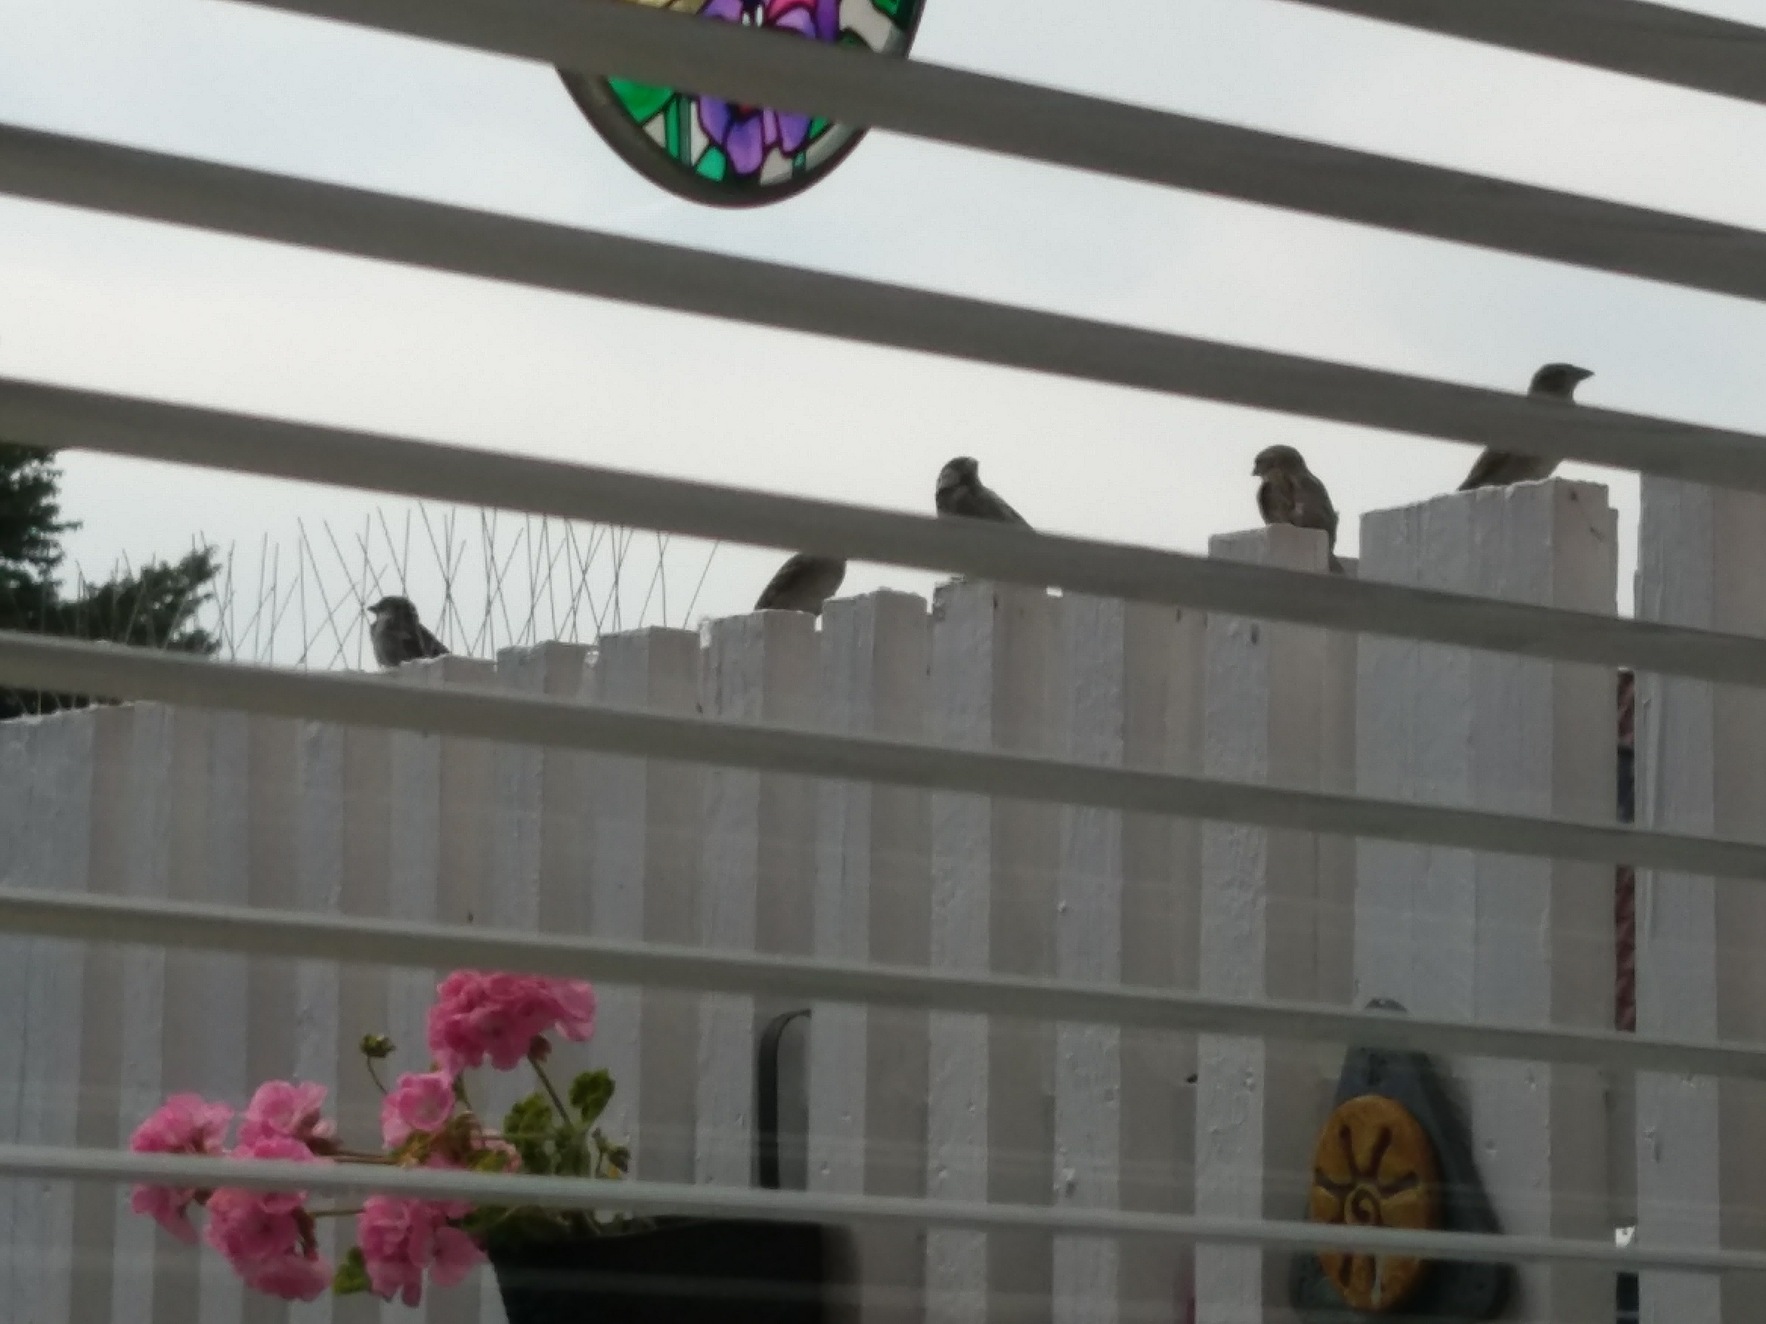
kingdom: Animalia
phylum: Chordata
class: Aves
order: Passeriformes
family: Passeridae
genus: Passer
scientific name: Passer domesticus
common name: Gråspurv
